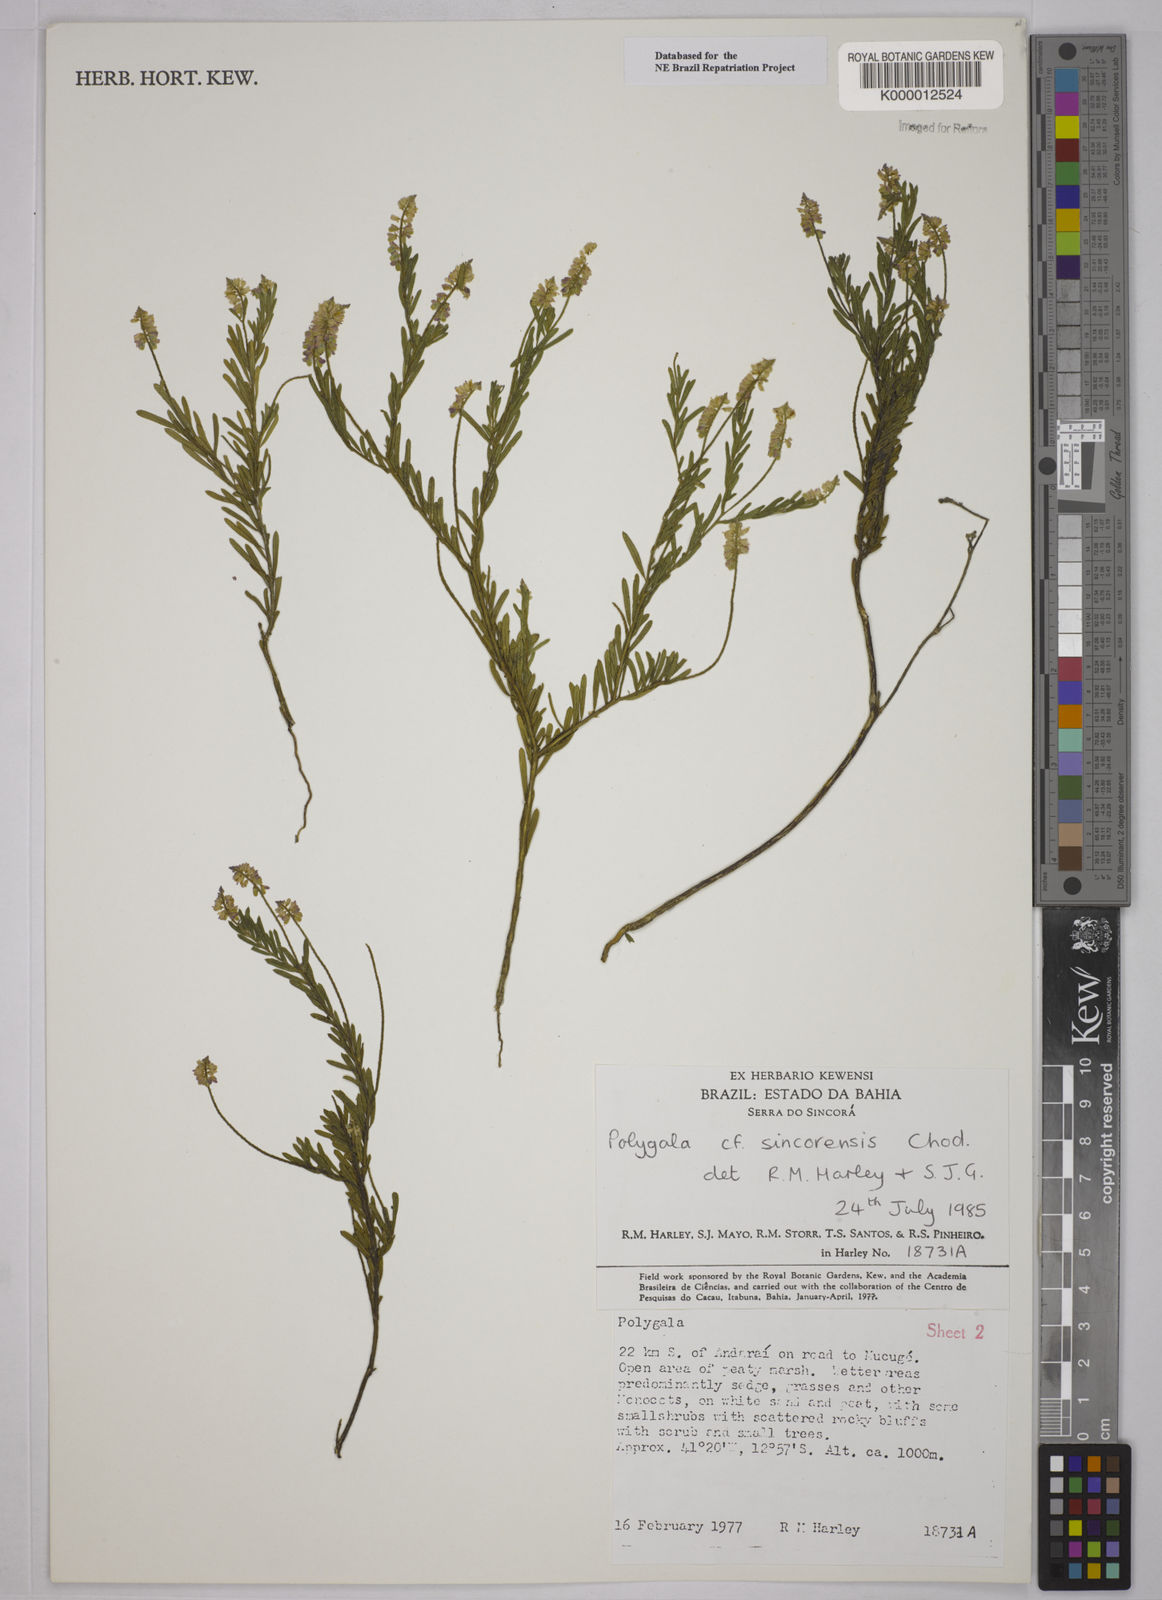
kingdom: Plantae
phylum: Tracheophyta
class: Magnoliopsida
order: Fabales
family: Polygalaceae
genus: Polygala
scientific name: Polygala tuberculata
